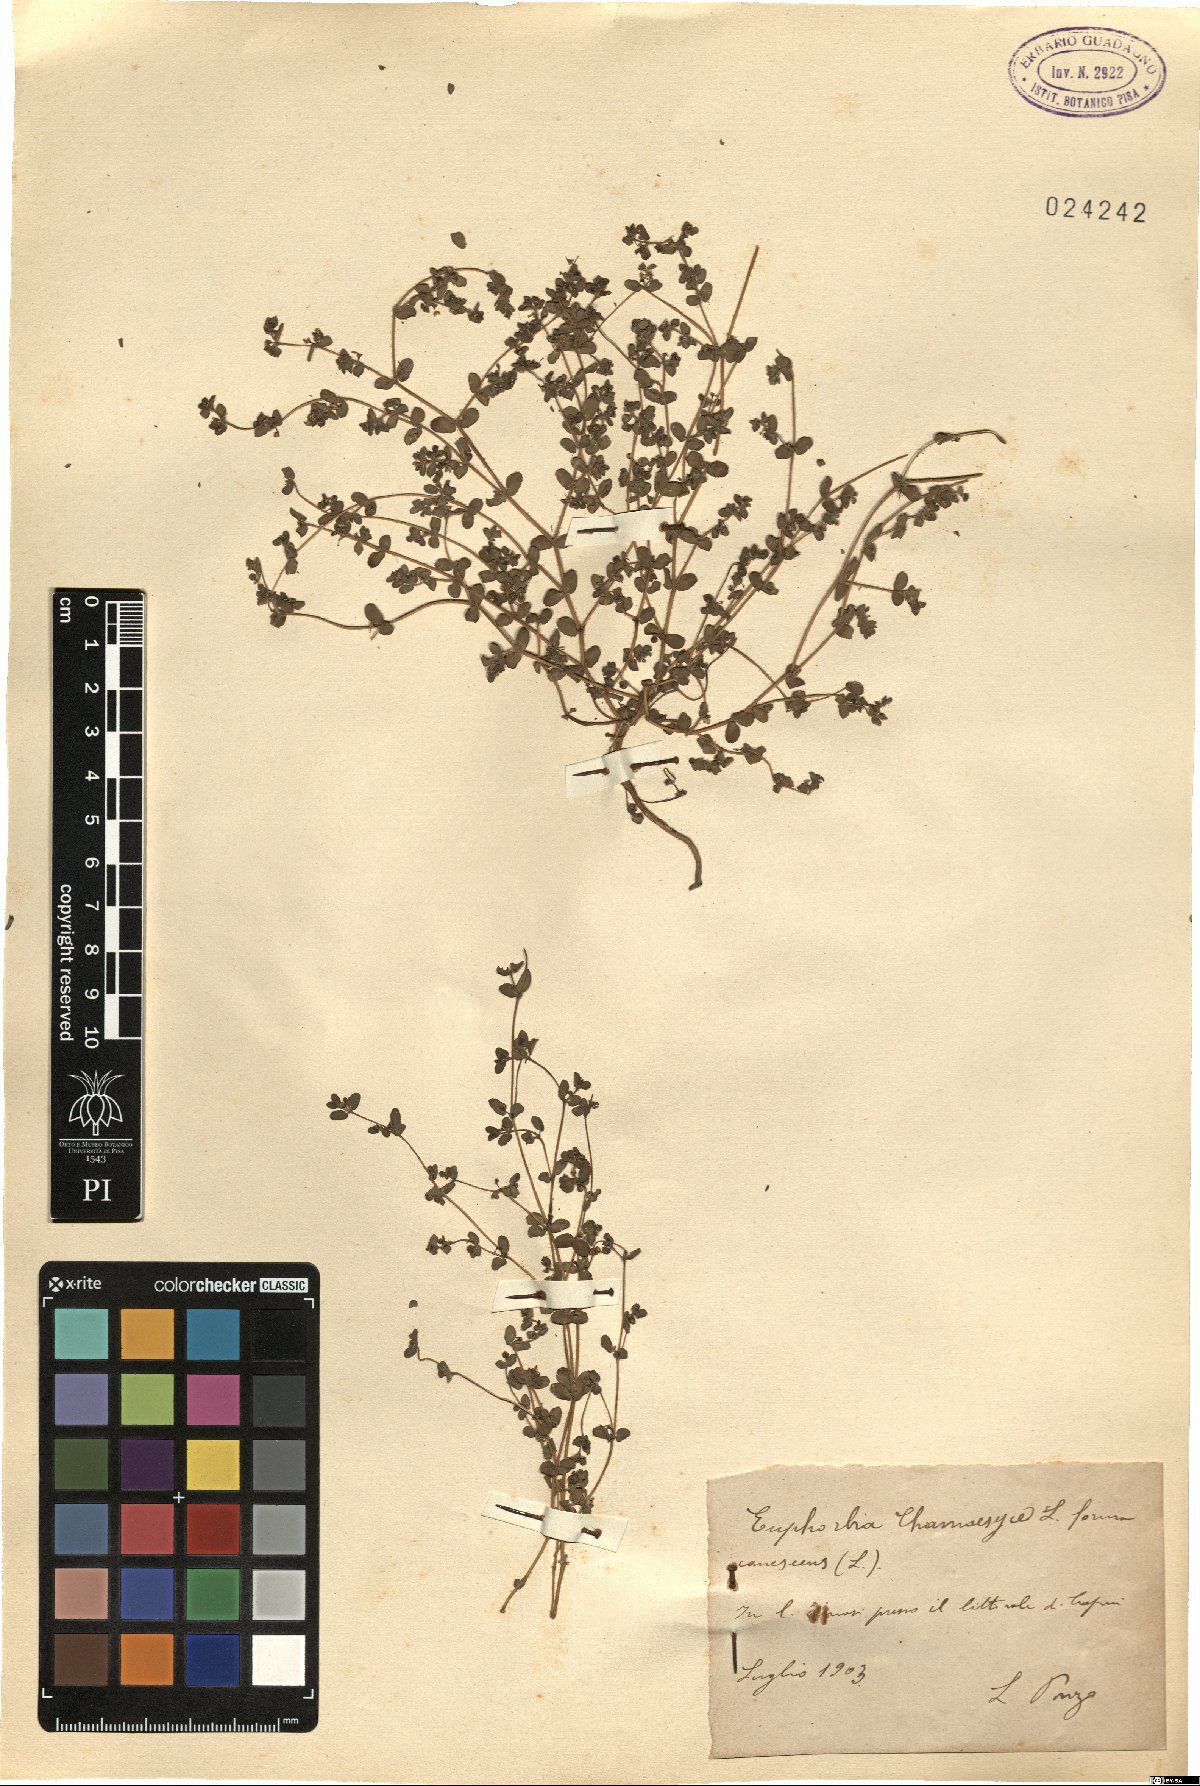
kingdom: Plantae
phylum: Tracheophyta
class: Magnoliopsida
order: Malpighiales
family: Euphorbiaceae
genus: Euphorbia
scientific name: Euphorbia chamaesyce
